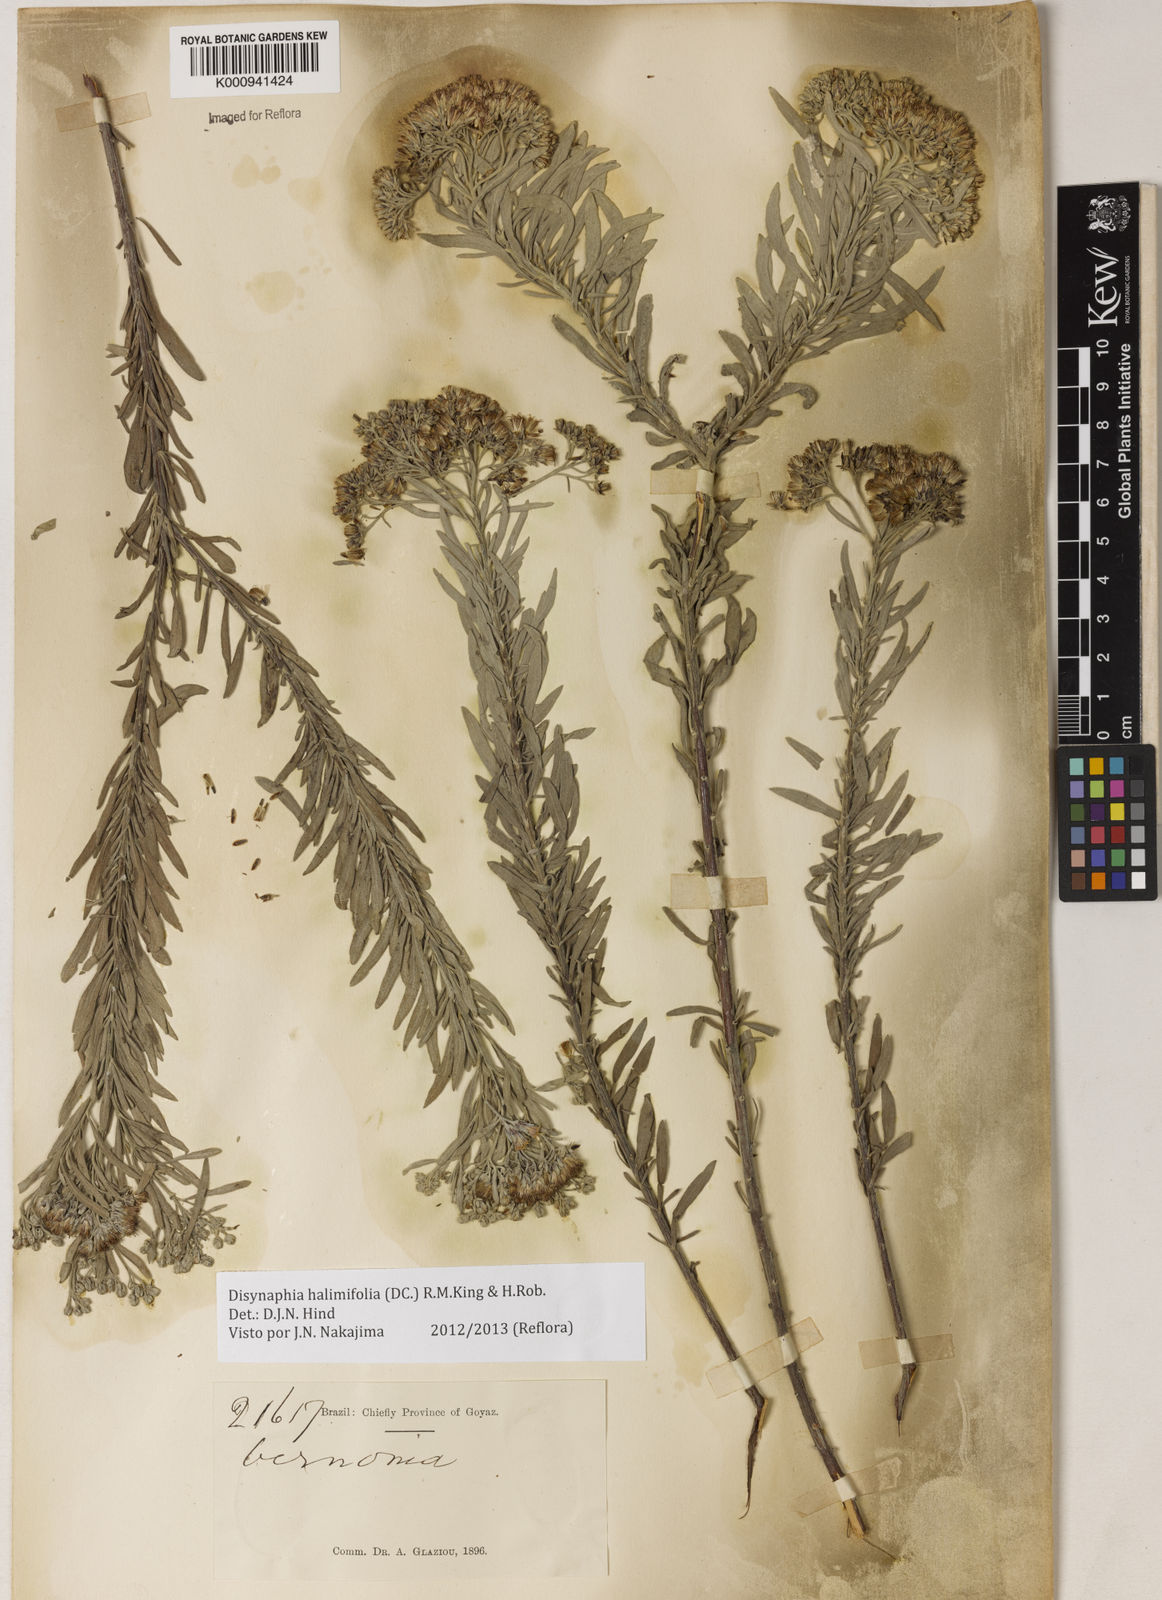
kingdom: Plantae
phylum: Tracheophyta
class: Magnoliopsida
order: Asterales
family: Asteraceae
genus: Disynaphia
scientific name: Disynaphia halimifolia
